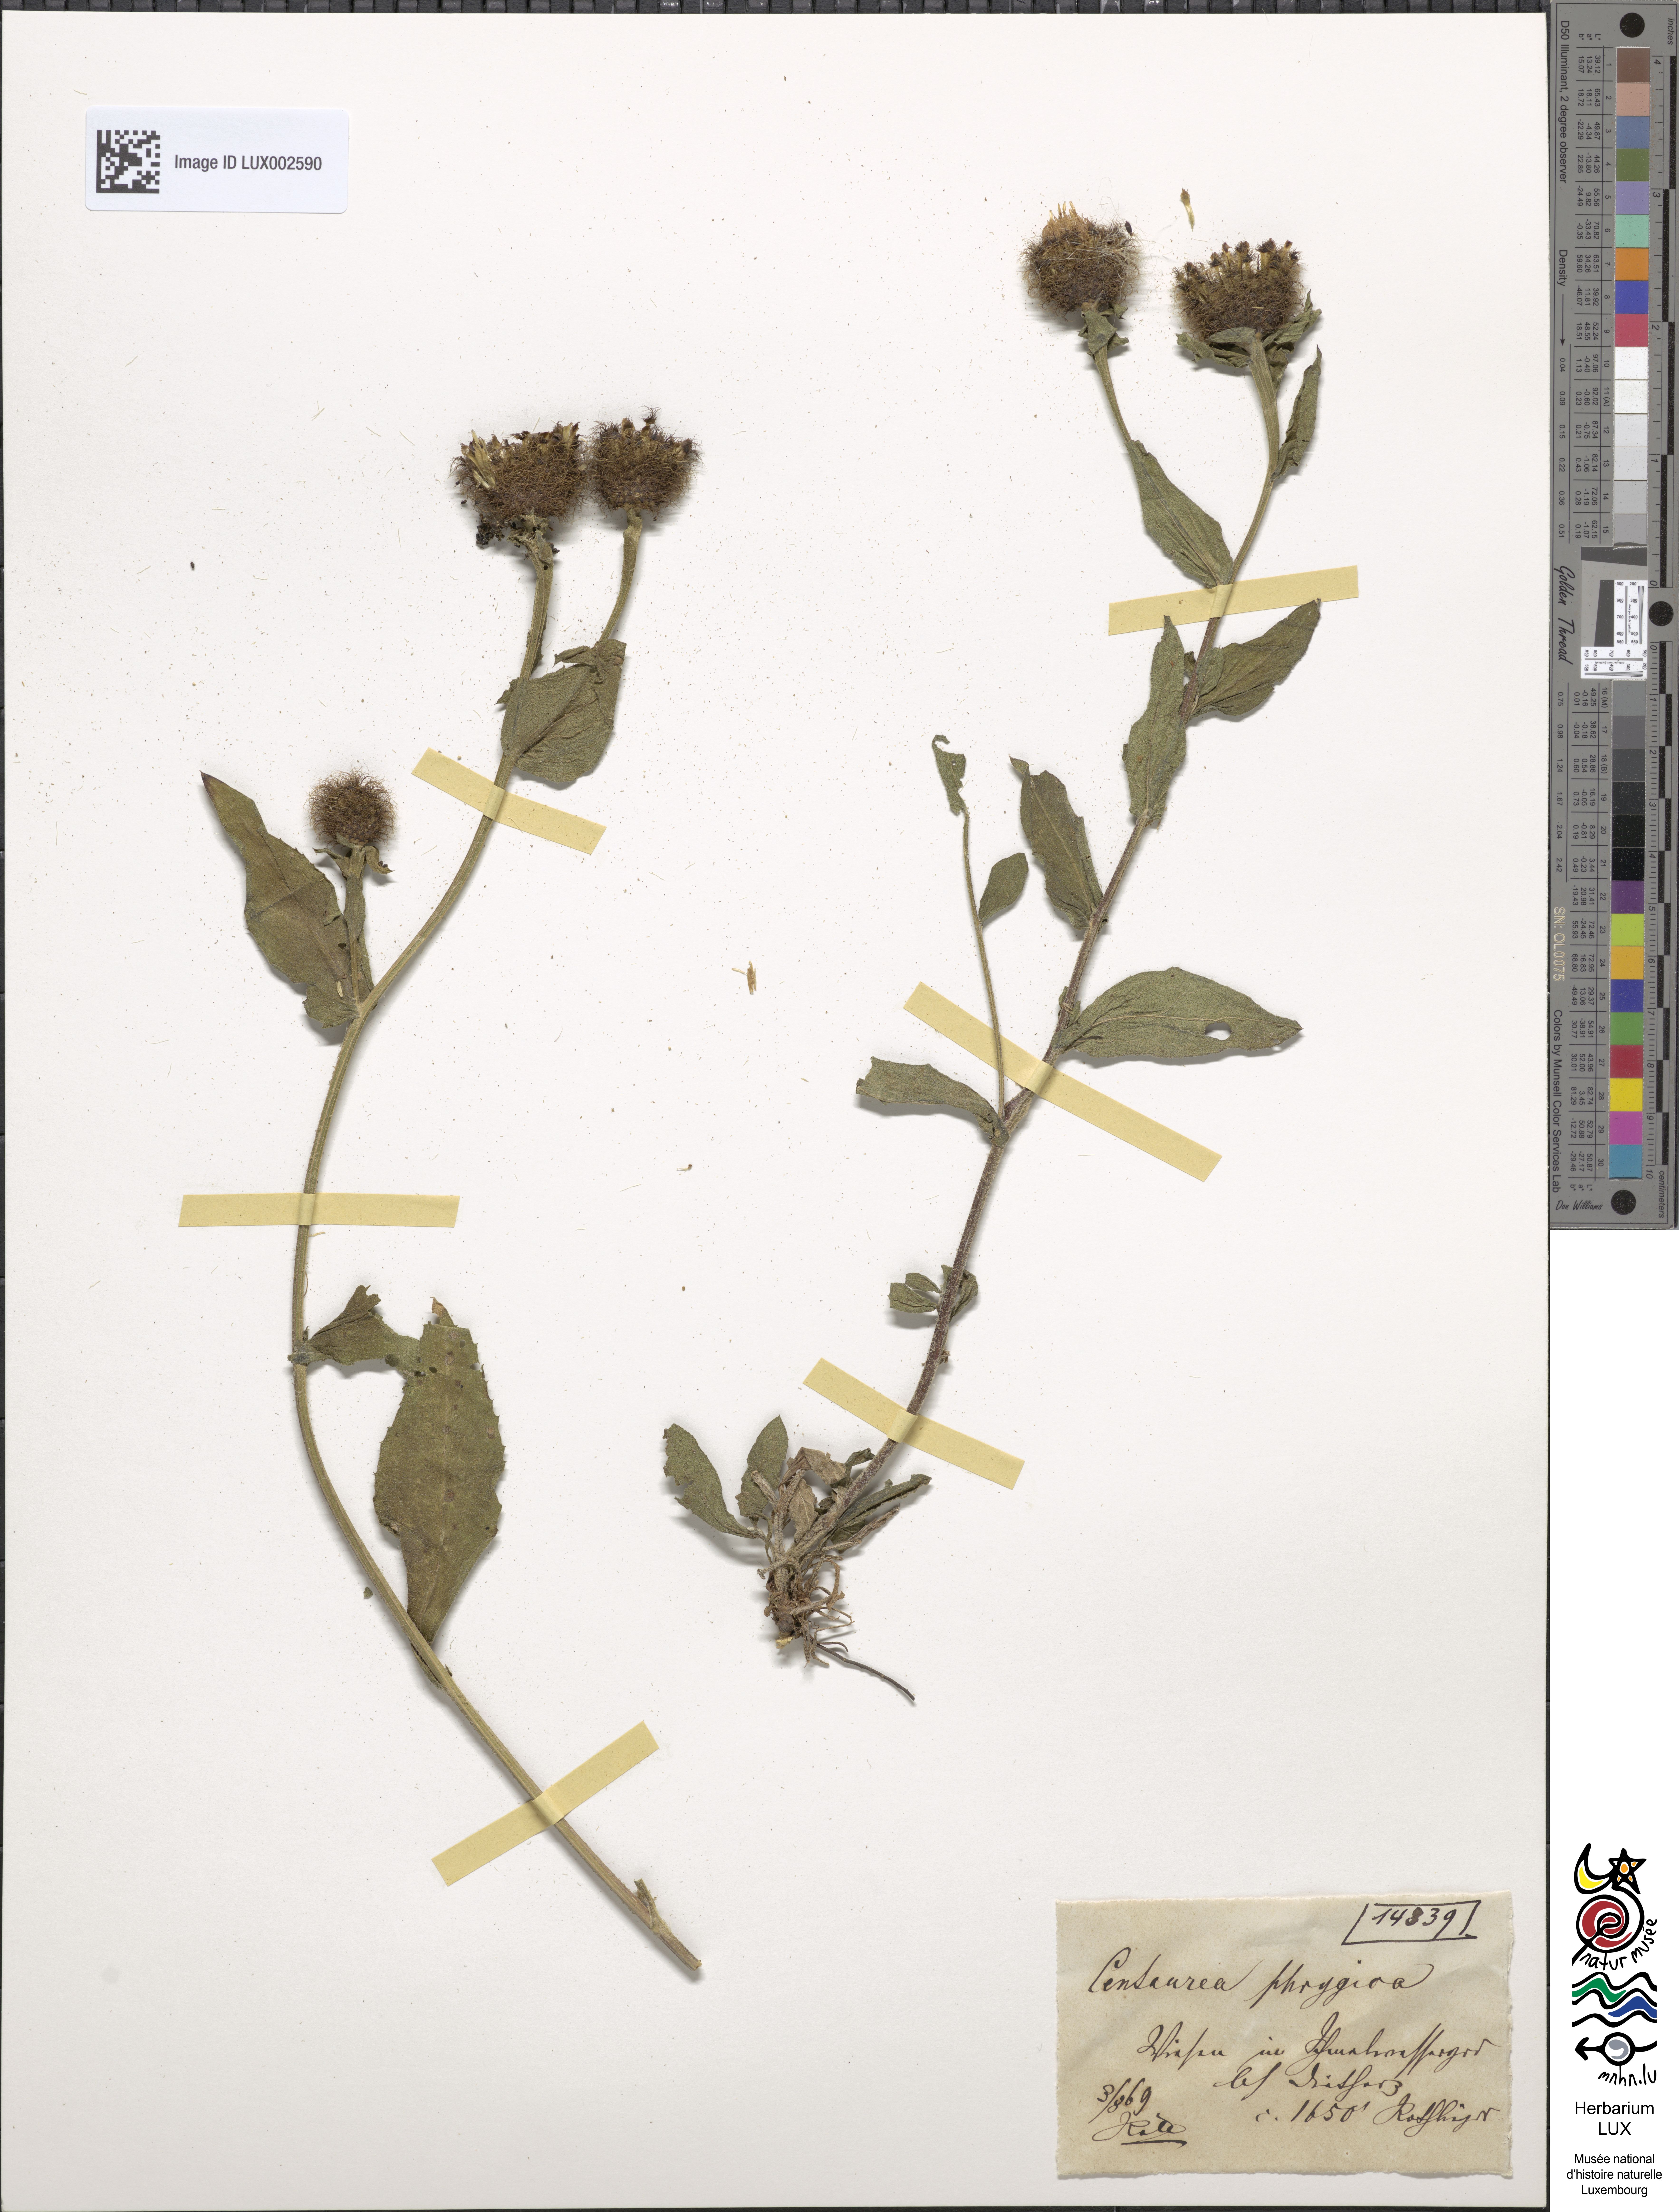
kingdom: Plantae
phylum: Tracheophyta
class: Magnoliopsida
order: Asterales
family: Asteraceae
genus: Centaurea
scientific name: Centaurea phrygia
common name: Wig knapweed
